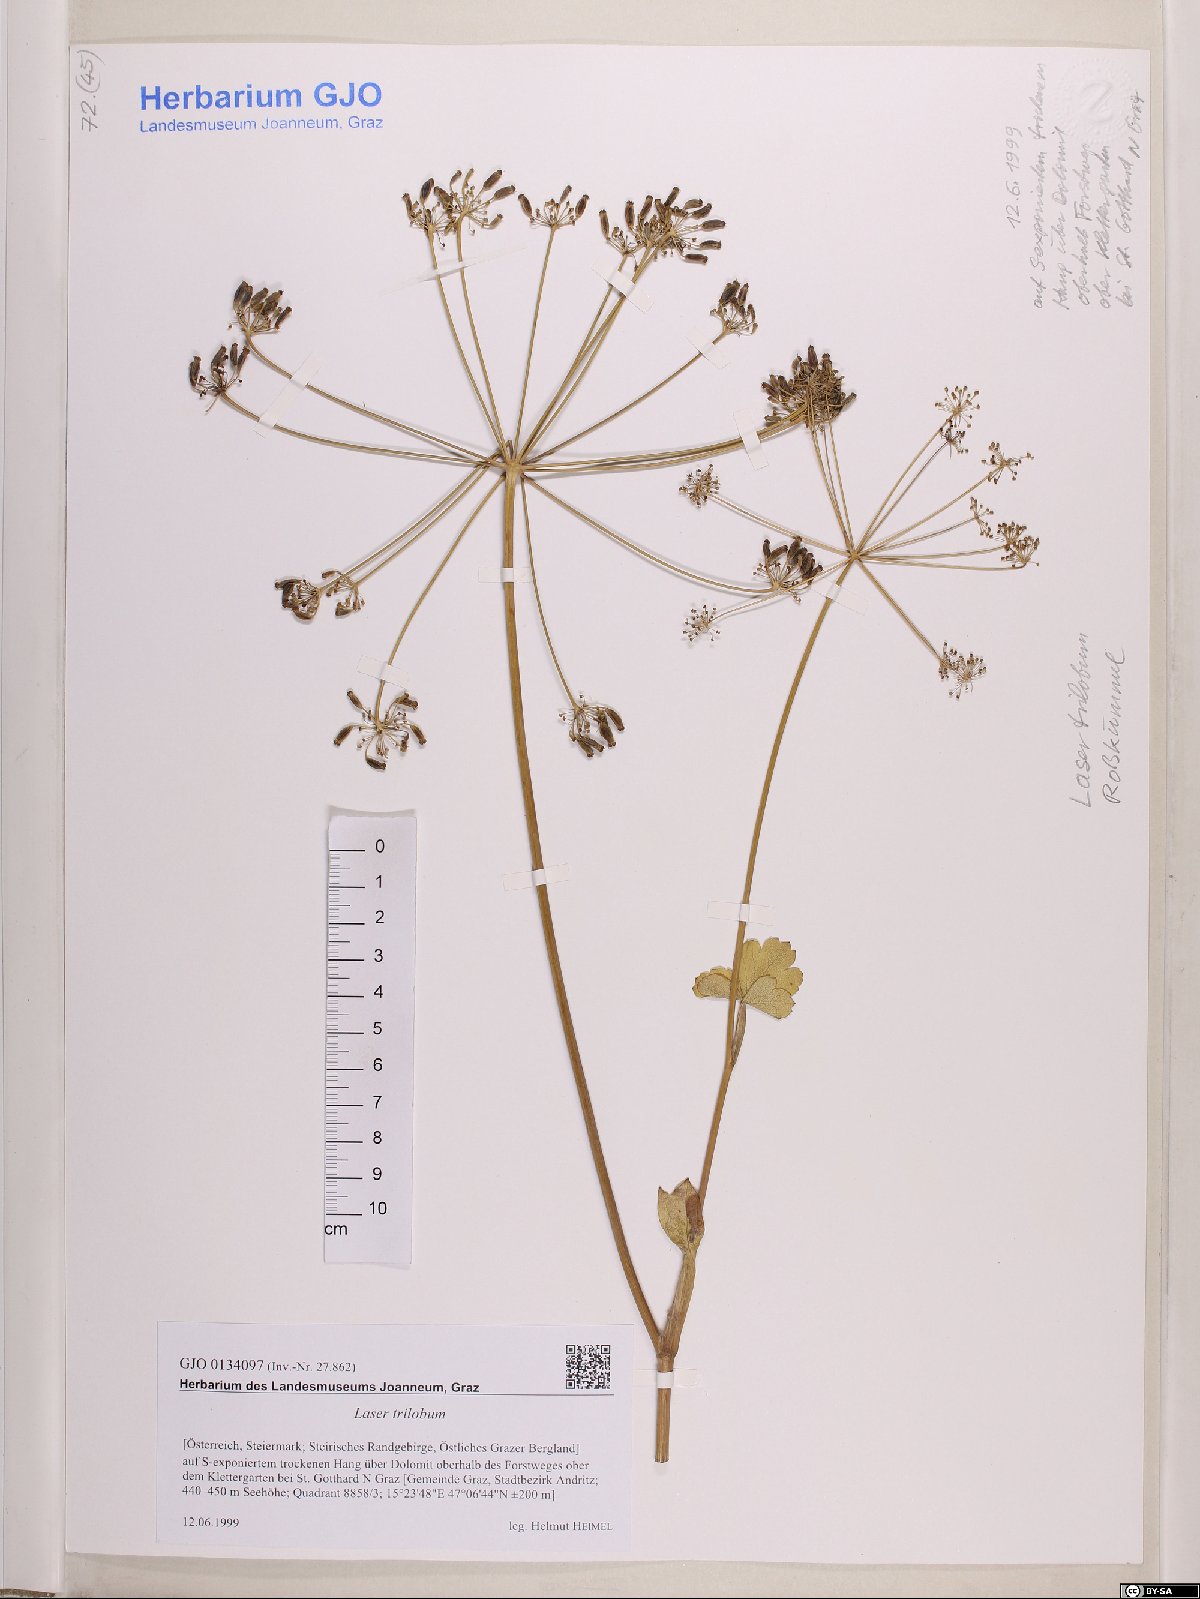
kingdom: Plantae
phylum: Tracheophyta
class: Magnoliopsida
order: Apiales
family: Apiaceae
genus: Laser
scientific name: Laser trilobum
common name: Laser
